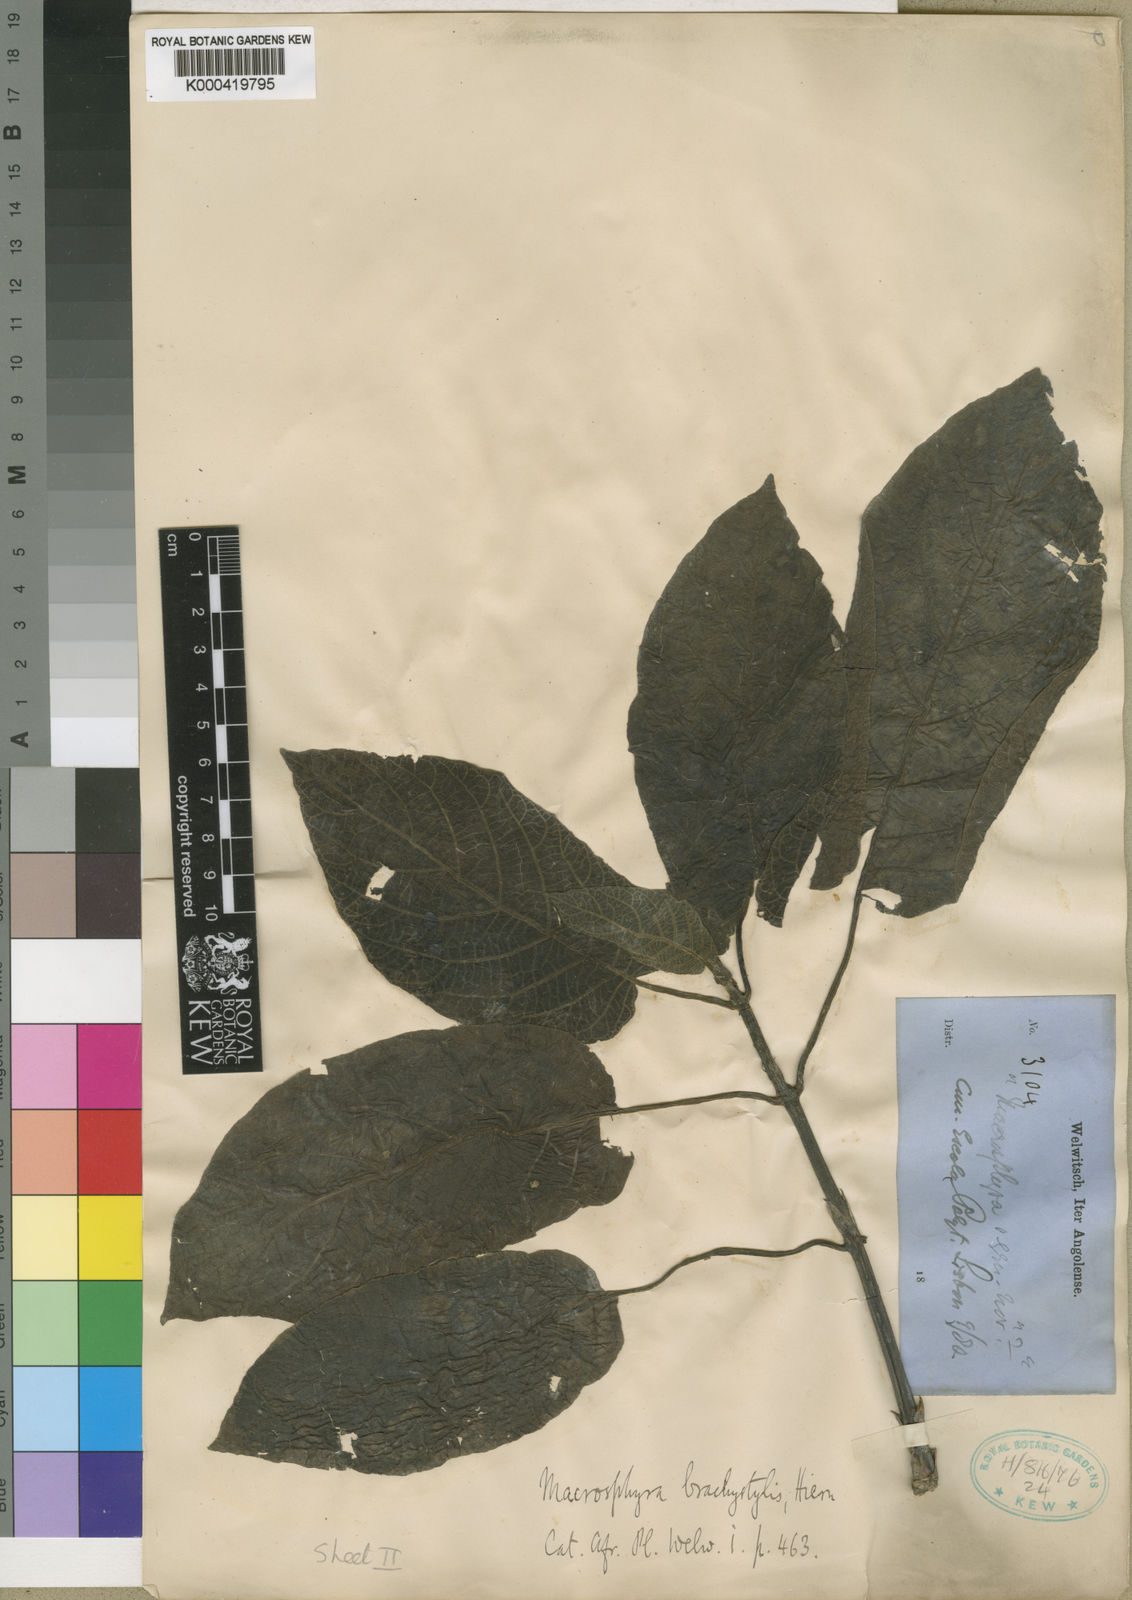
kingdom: Plantae
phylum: Tracheophyta
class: Magnoliopsida
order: Gentianales
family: Rubiaceae
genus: Macrosphyra
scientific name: Macrosphyra brachystylis
